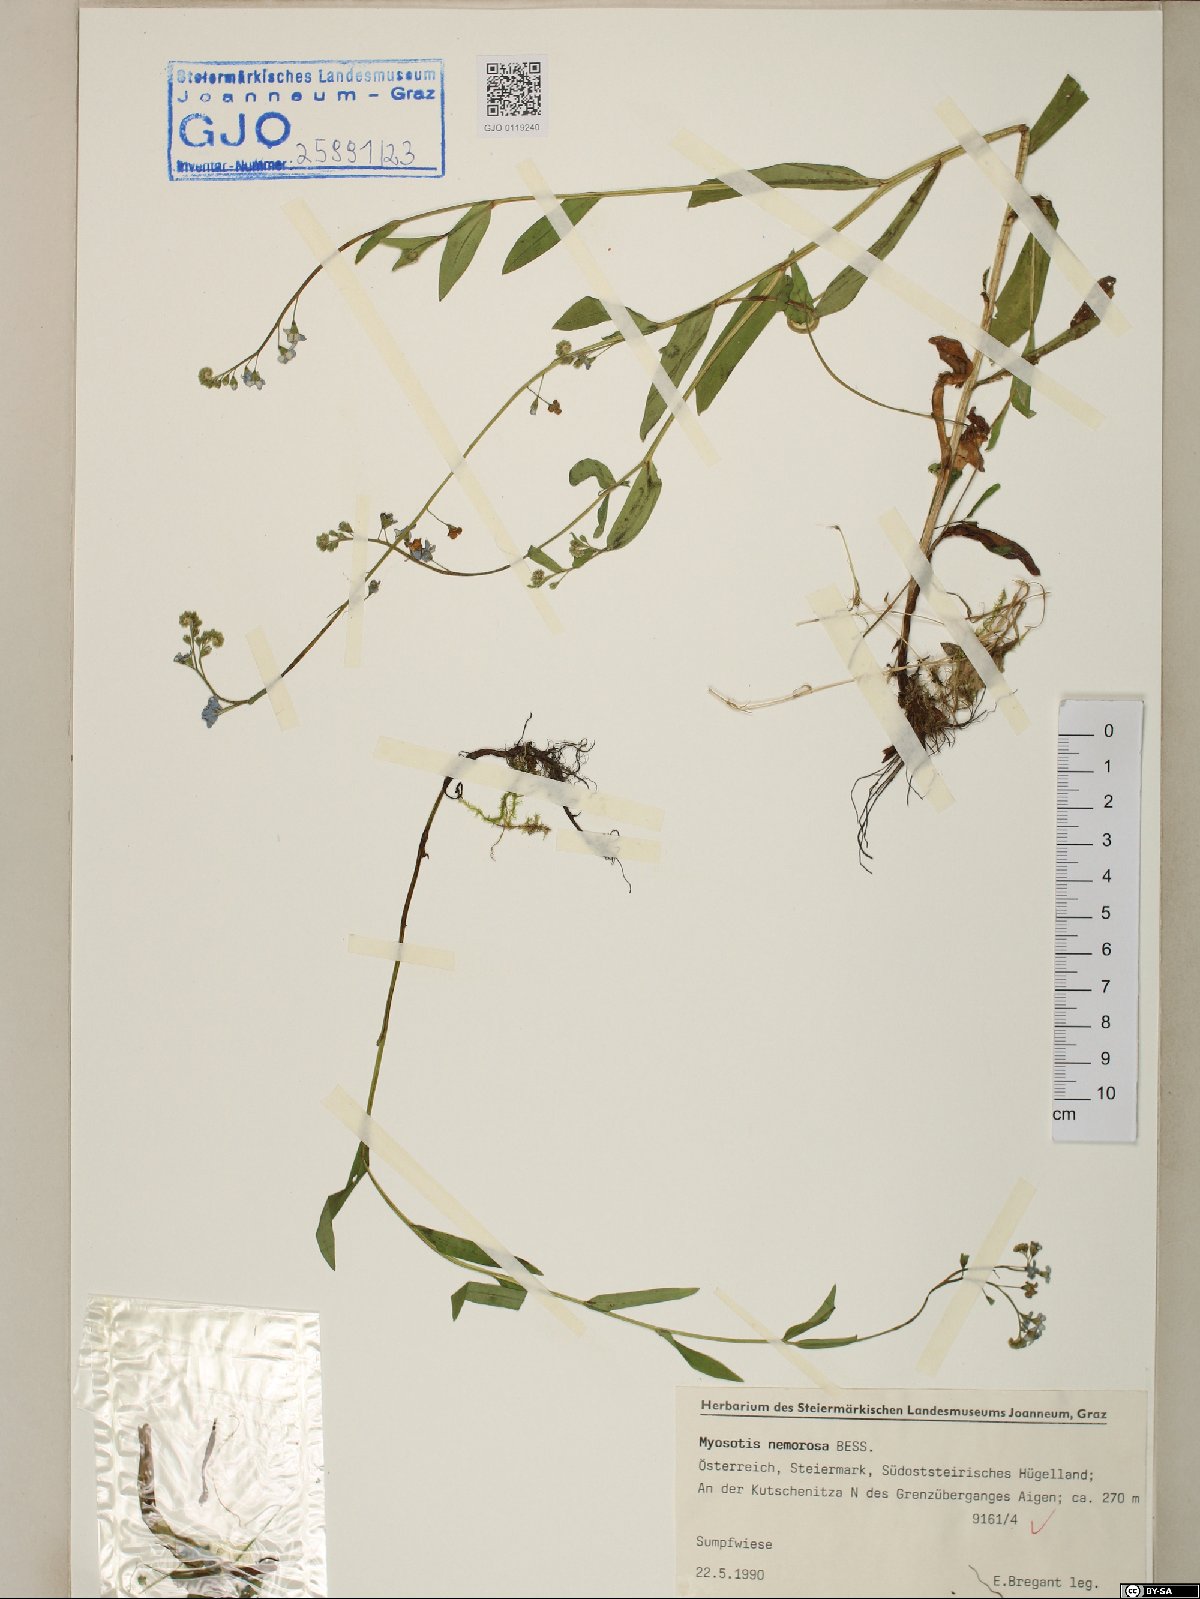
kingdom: Plantae
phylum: Tracheophyta
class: Magnoliopsida
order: Boraginales
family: Boraginaceae
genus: Myosotis
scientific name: Myosotis nemorosa
